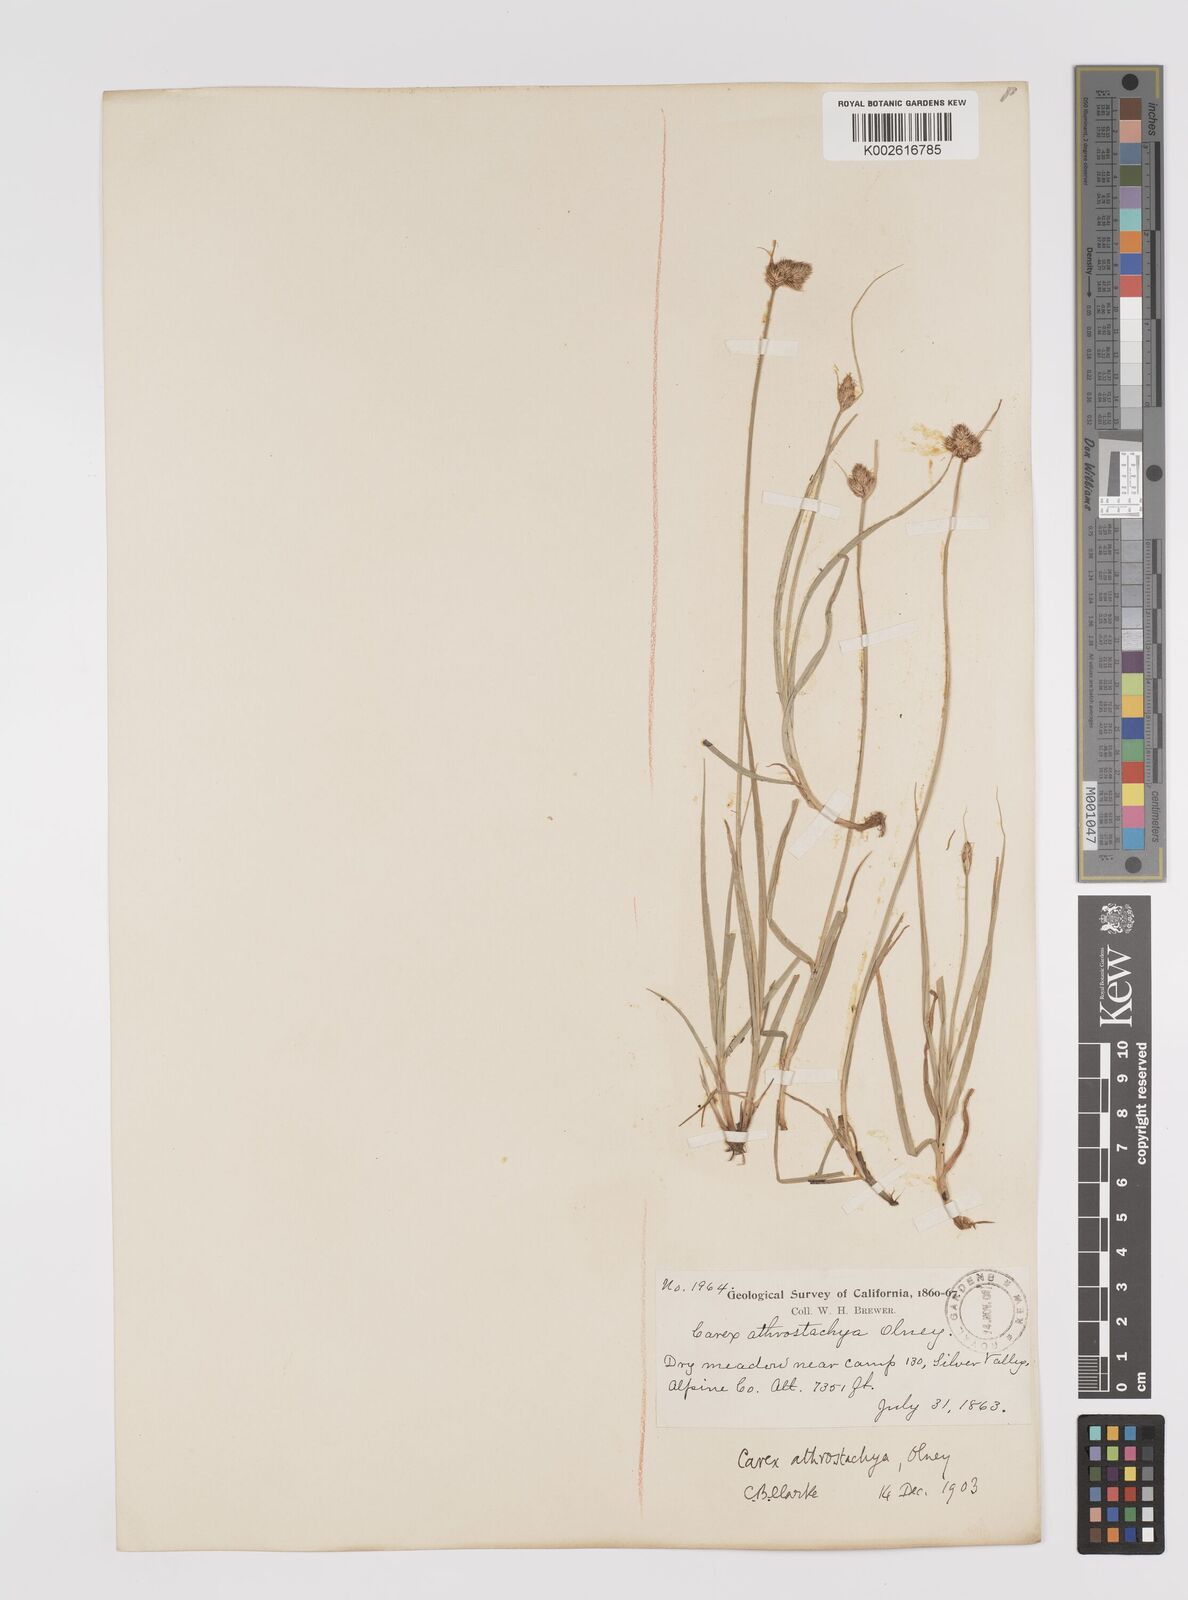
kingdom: Plantae
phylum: Tracheophyta
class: Liliopsida
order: Poales
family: Cyperaceae
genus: Carex
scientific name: Carex athrostachya
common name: Slenderbeak sedge
